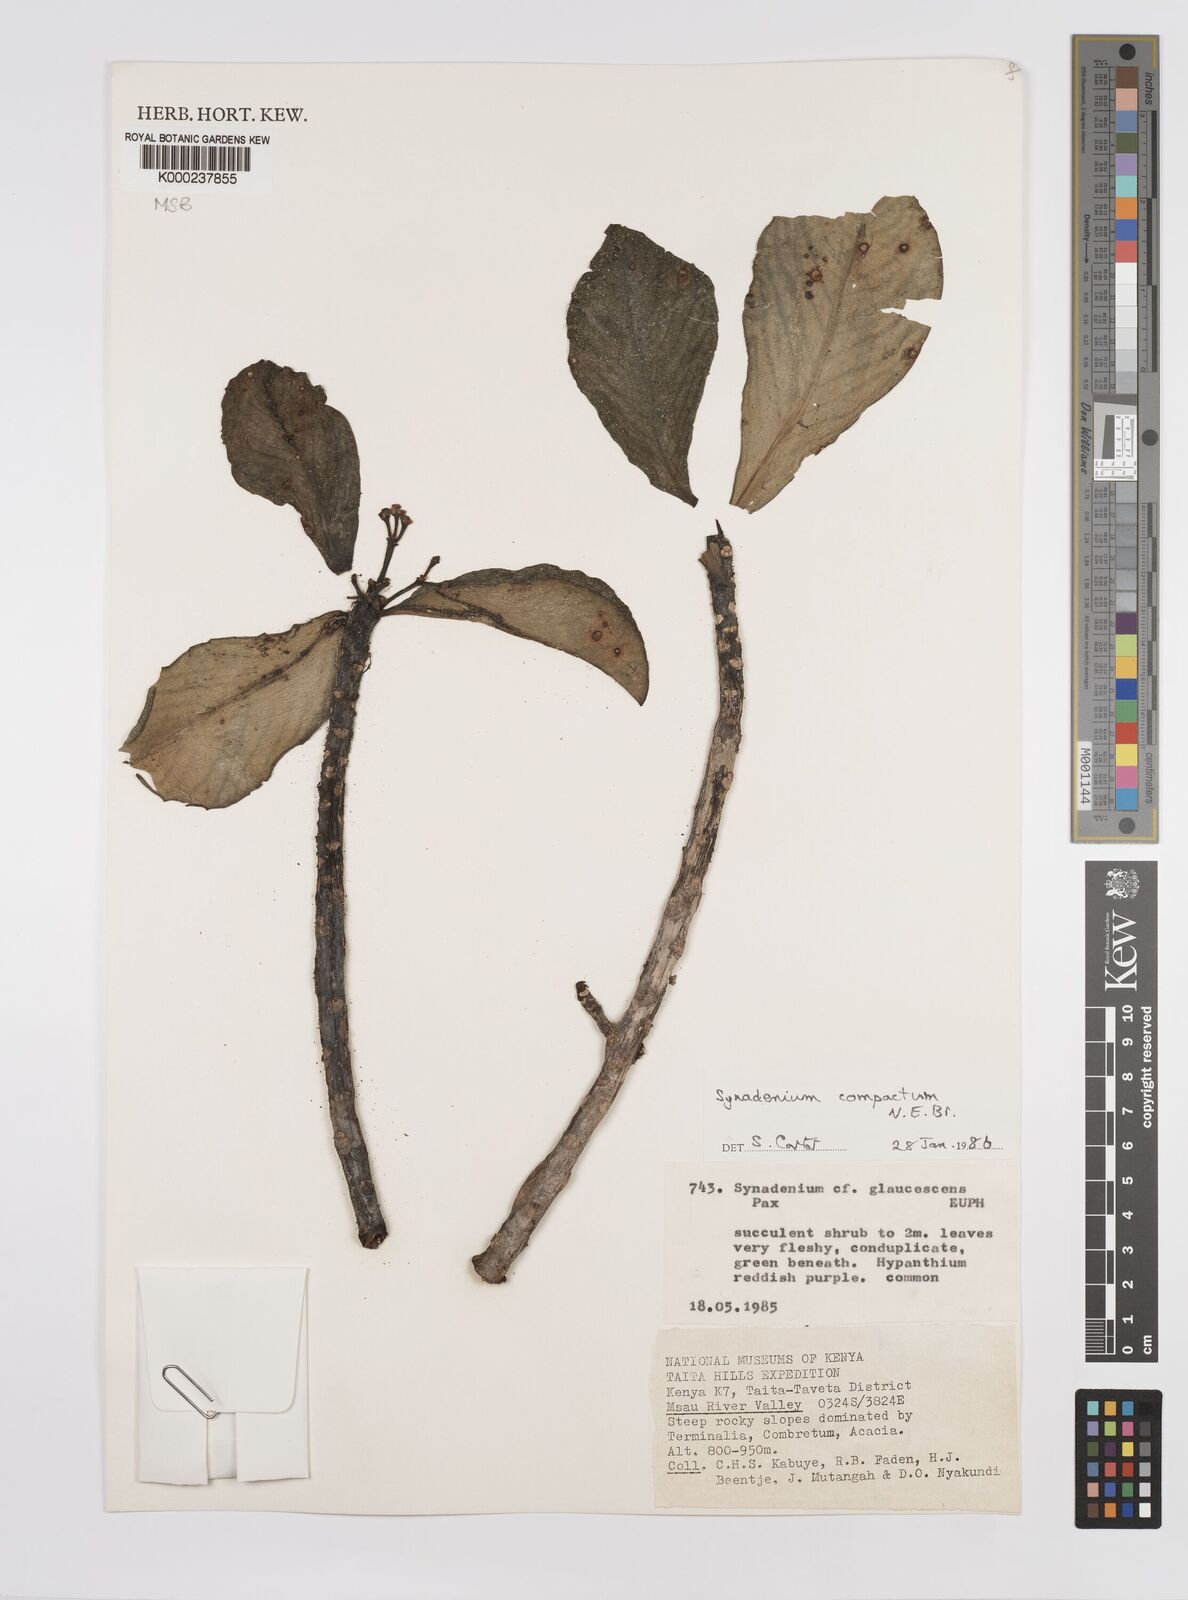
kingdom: Plantae
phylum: Tracheophyta
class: Magnoliopsida
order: Malpighiales
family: Euphorbiaceae
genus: Euphorbia
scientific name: Euphorbia bicompacta
